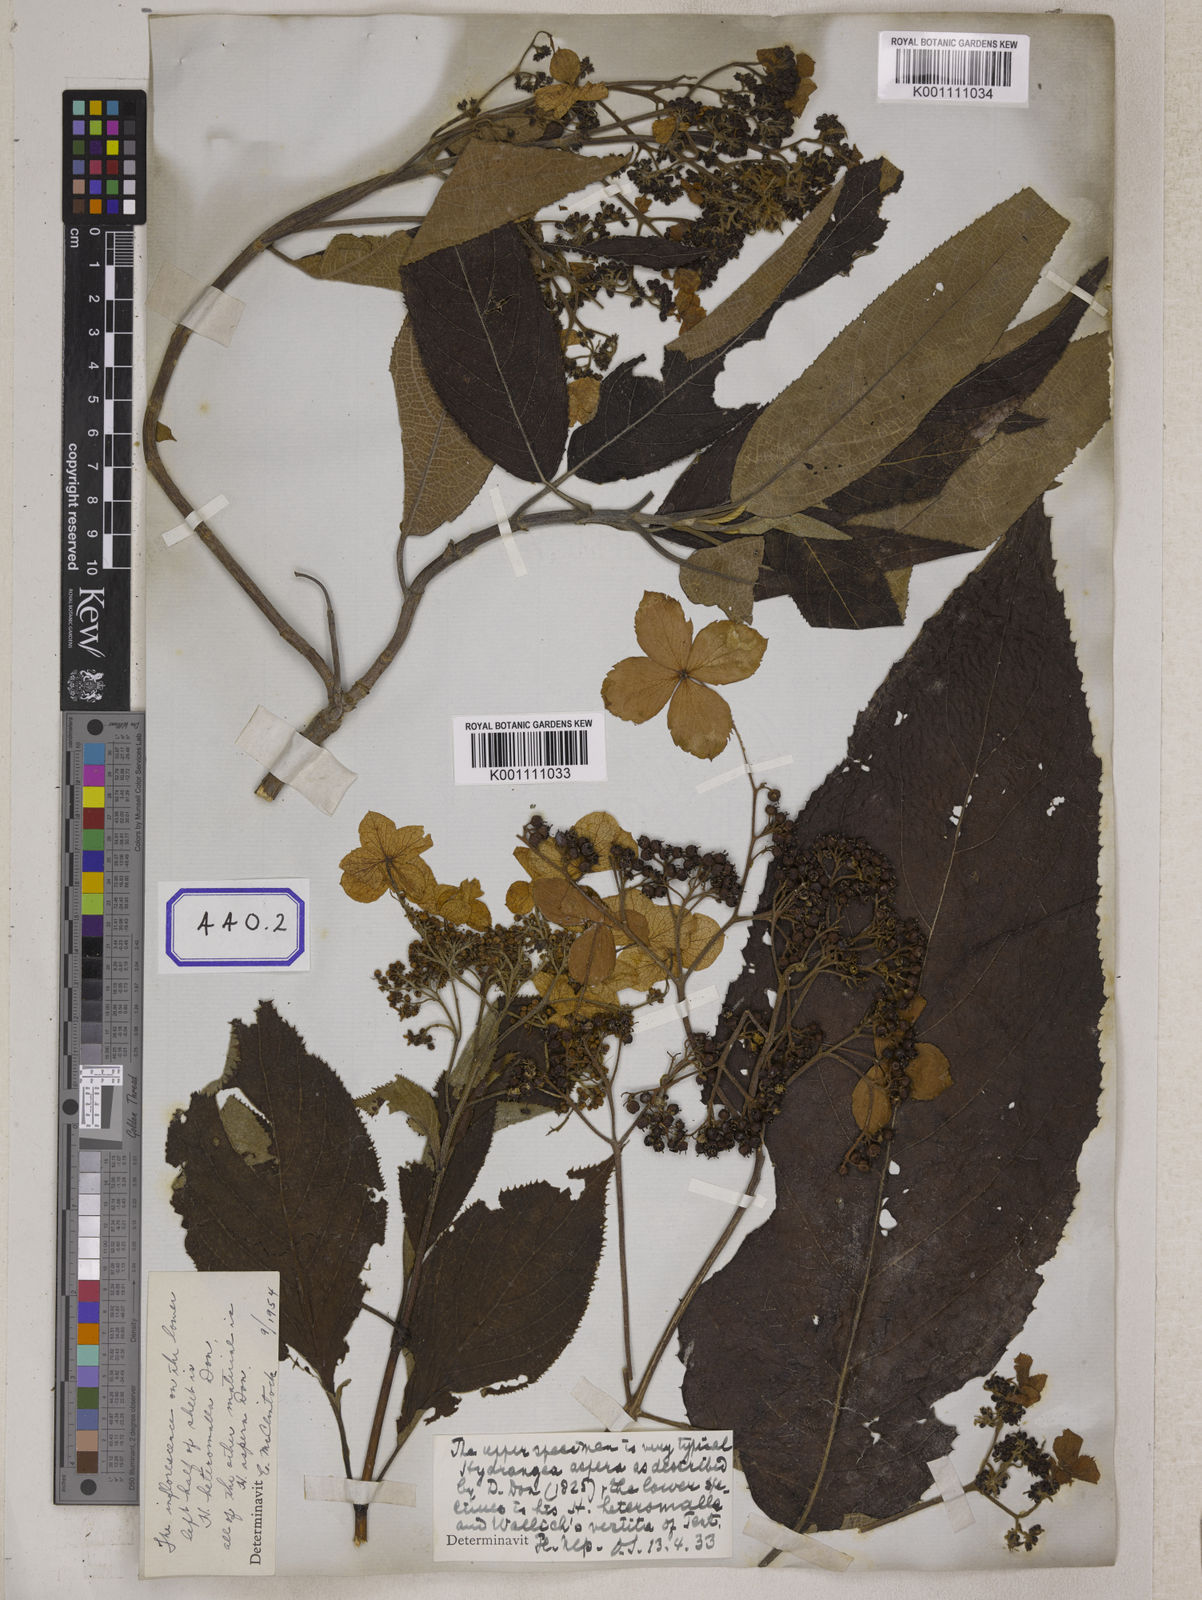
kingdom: Plantae
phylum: Tracheophyta
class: Magnoliopsida
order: Cornales
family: Hydrangeaceae
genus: Hydrangea
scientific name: Hydrangea heteromalla
